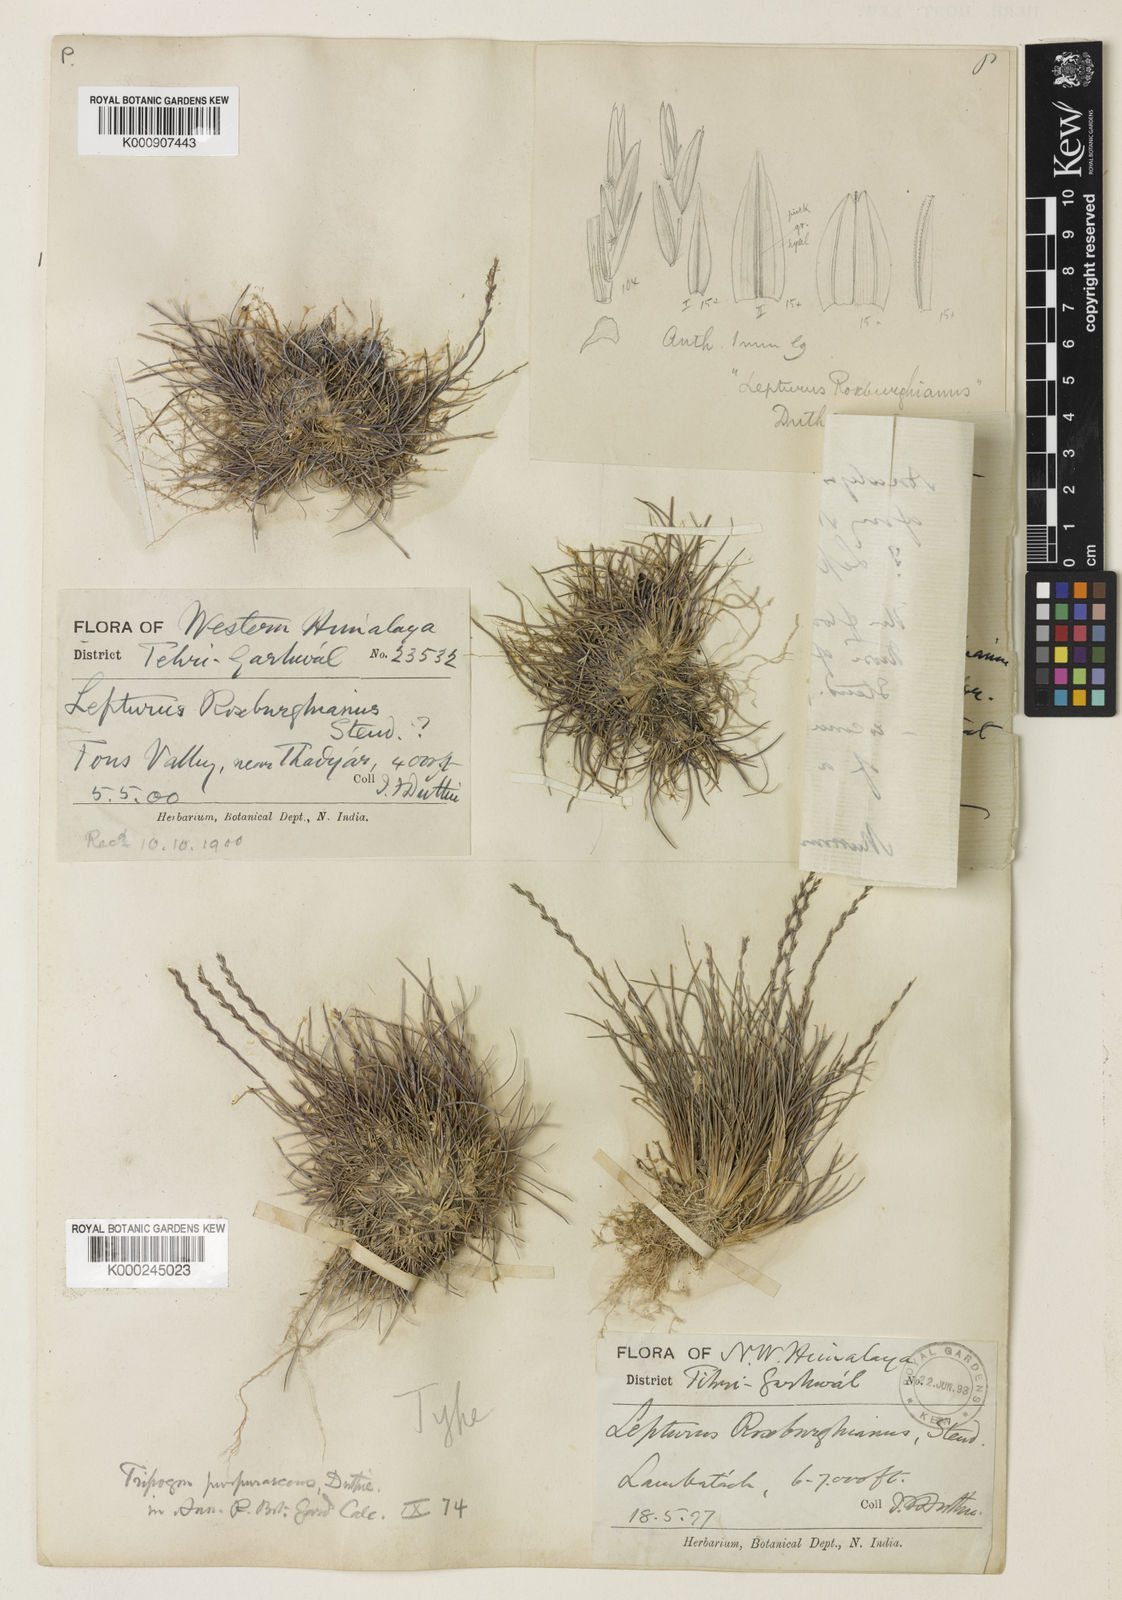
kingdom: Plantae
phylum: Tracheophyta
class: Liliopsida
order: Poales
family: Poaceae
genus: Tripogon
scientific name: Tripogon purpurascens
